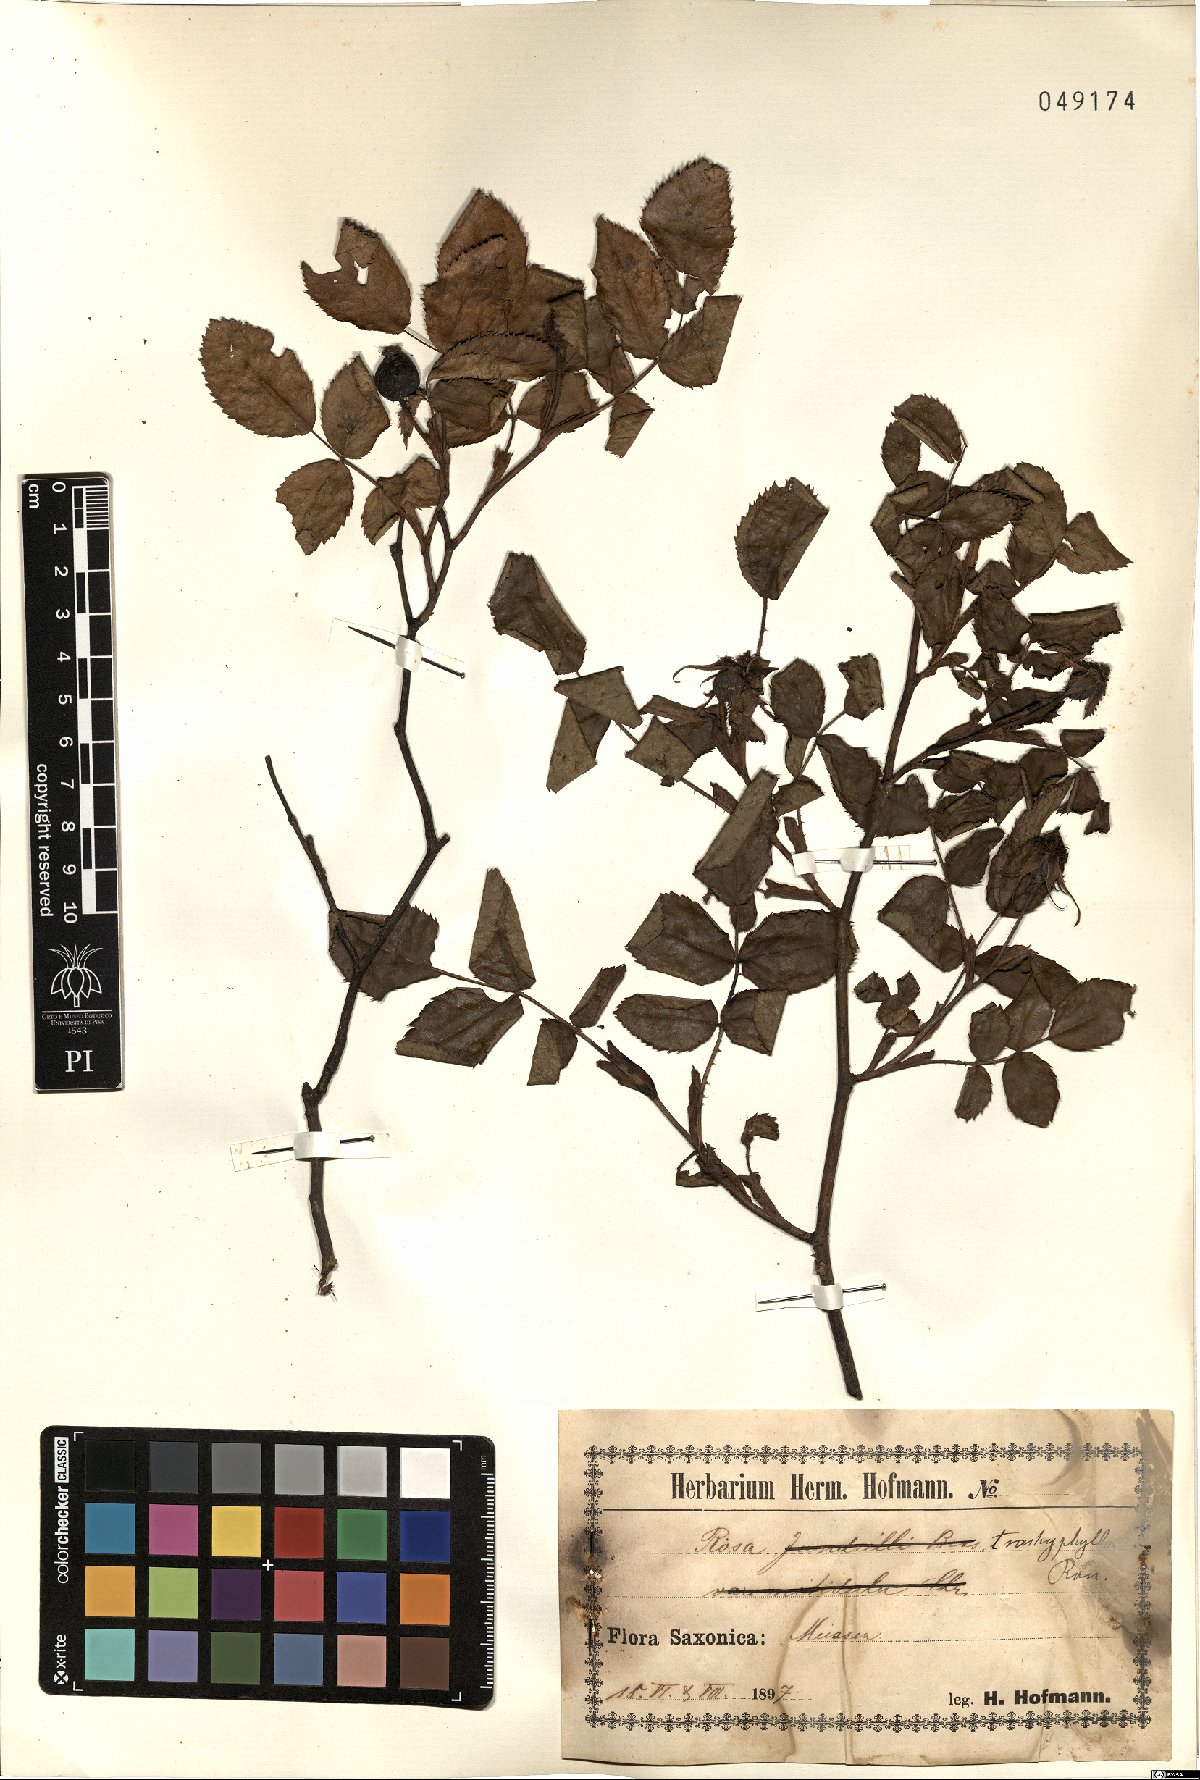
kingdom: Plantae
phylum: Tracheophyta
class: Magnoliopsida
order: Rosales
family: Rosaceae
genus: Rosa
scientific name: Rosa marginata
